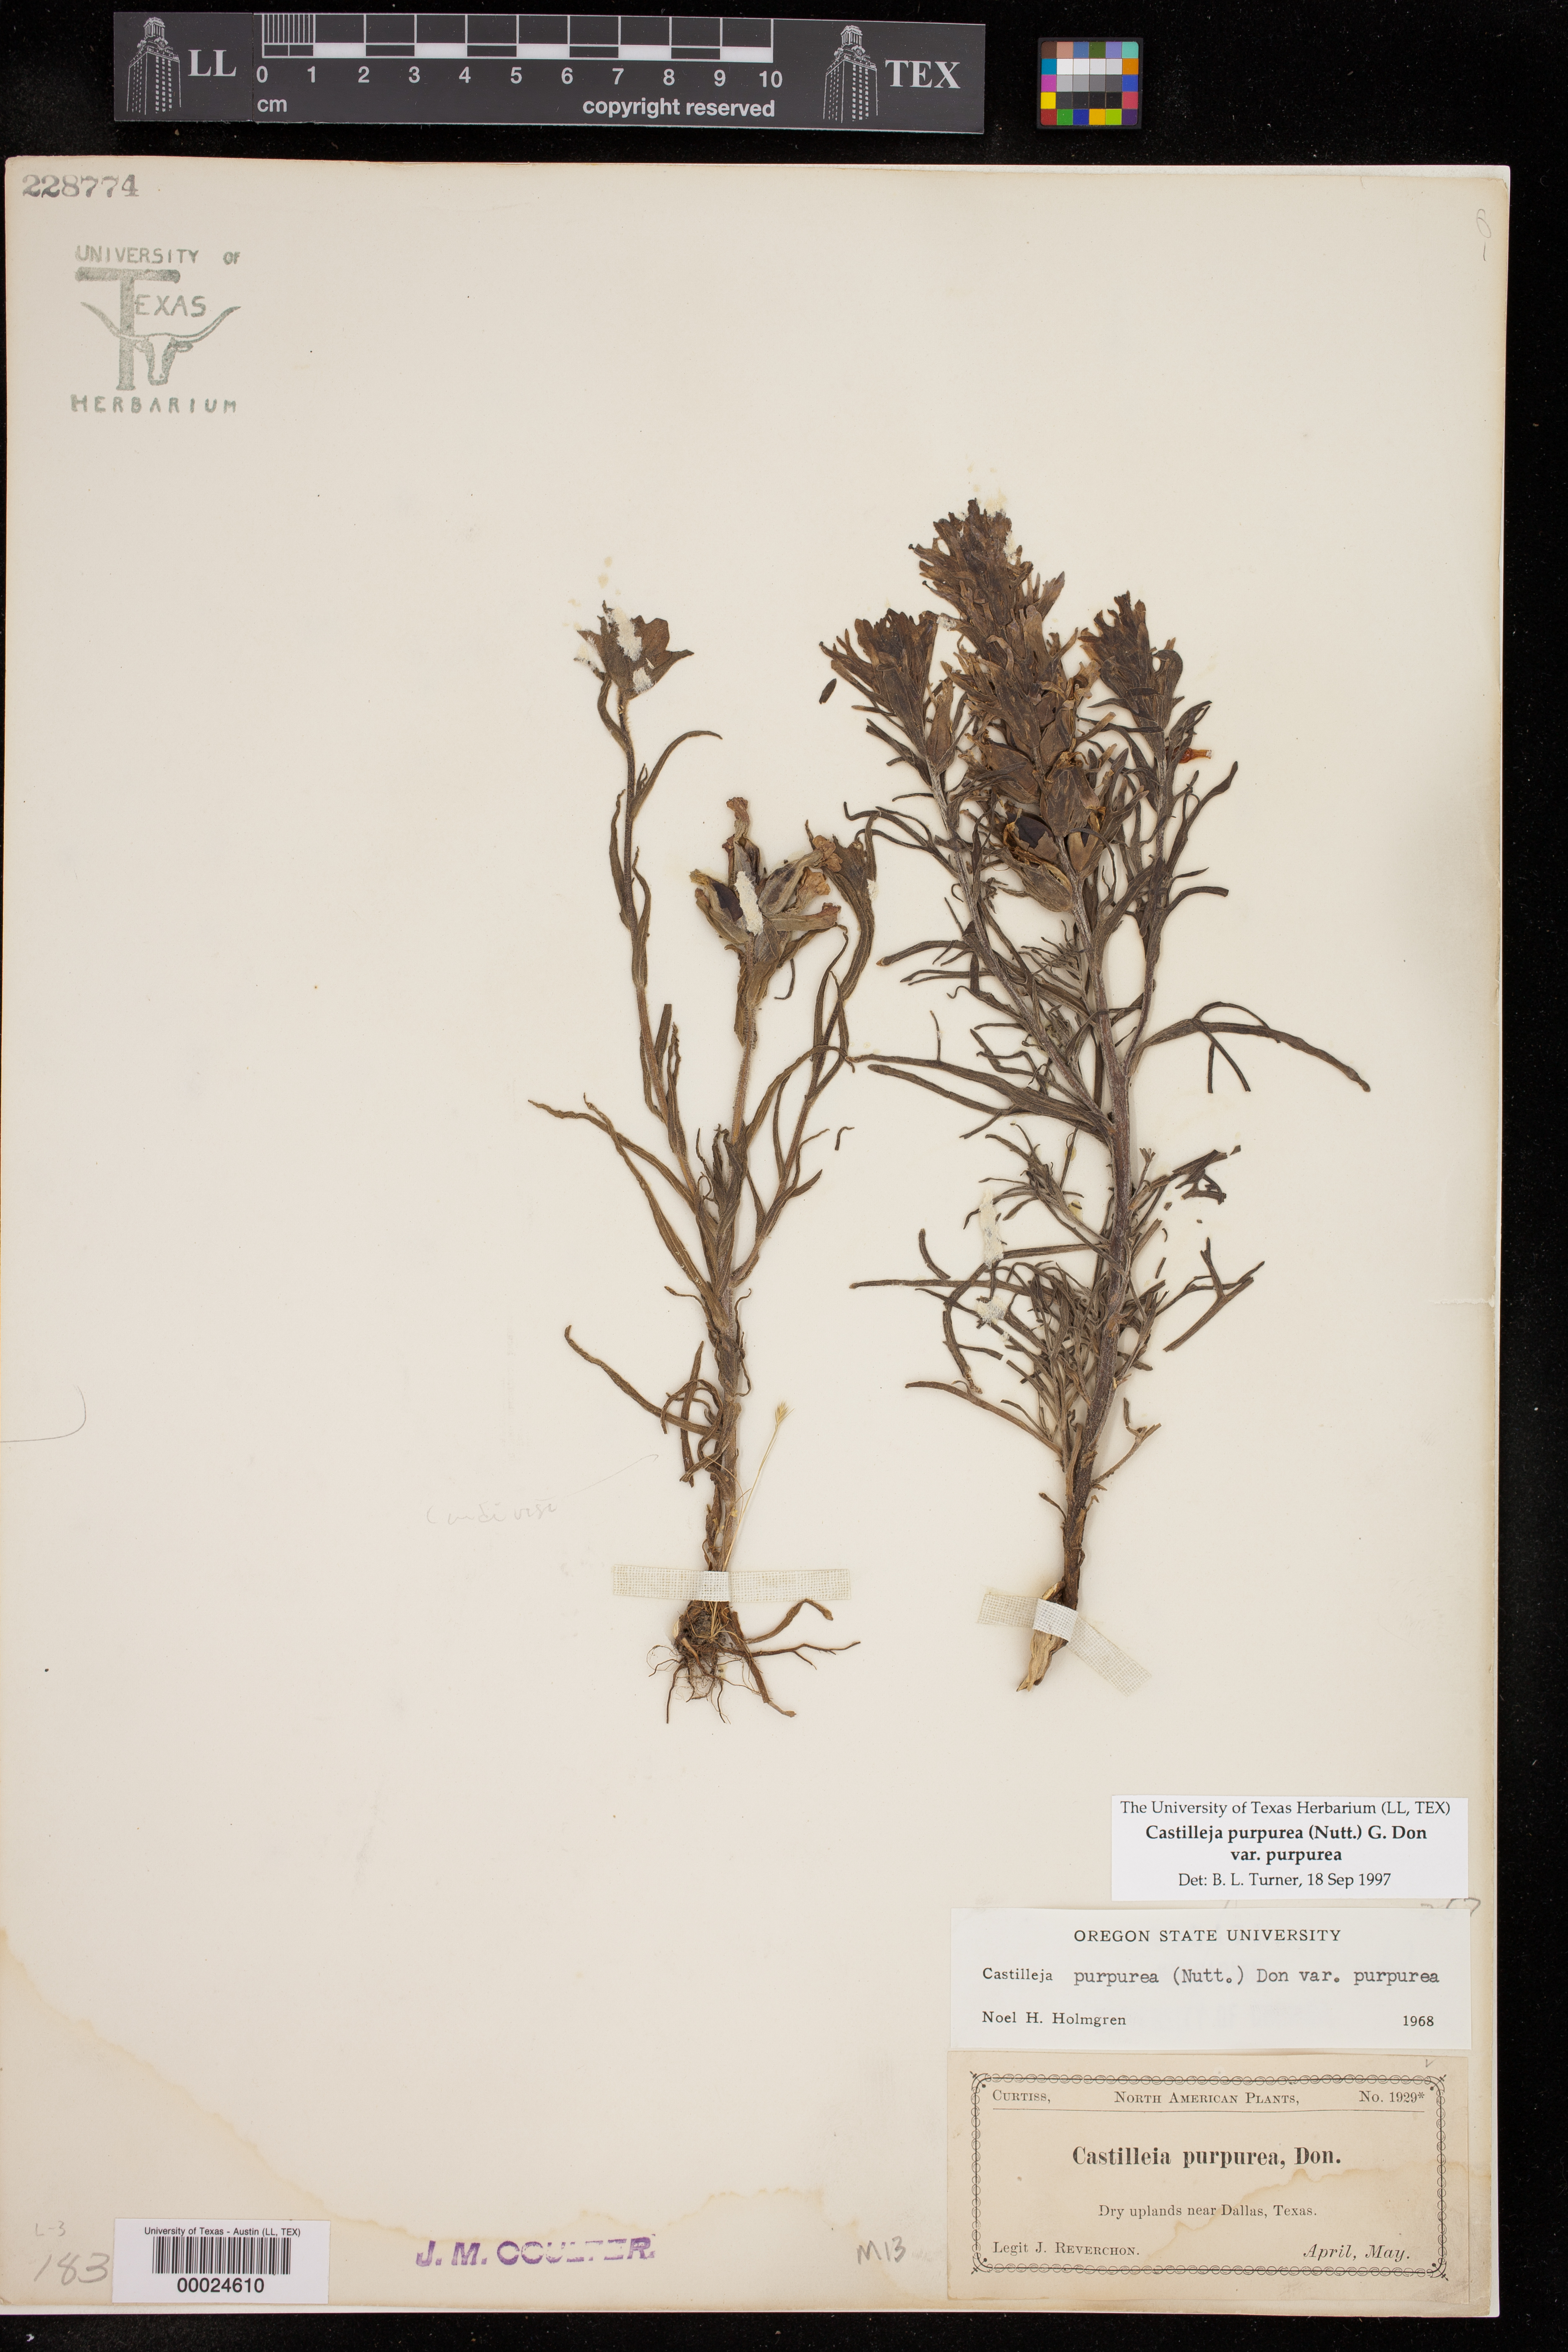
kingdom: Plantae
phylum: Tracheophyta
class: Magnoliopsida
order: Lamiales
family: Orobanchaceae
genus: Castilleja
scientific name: Castilleja purpurea
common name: Plains paintbrush
